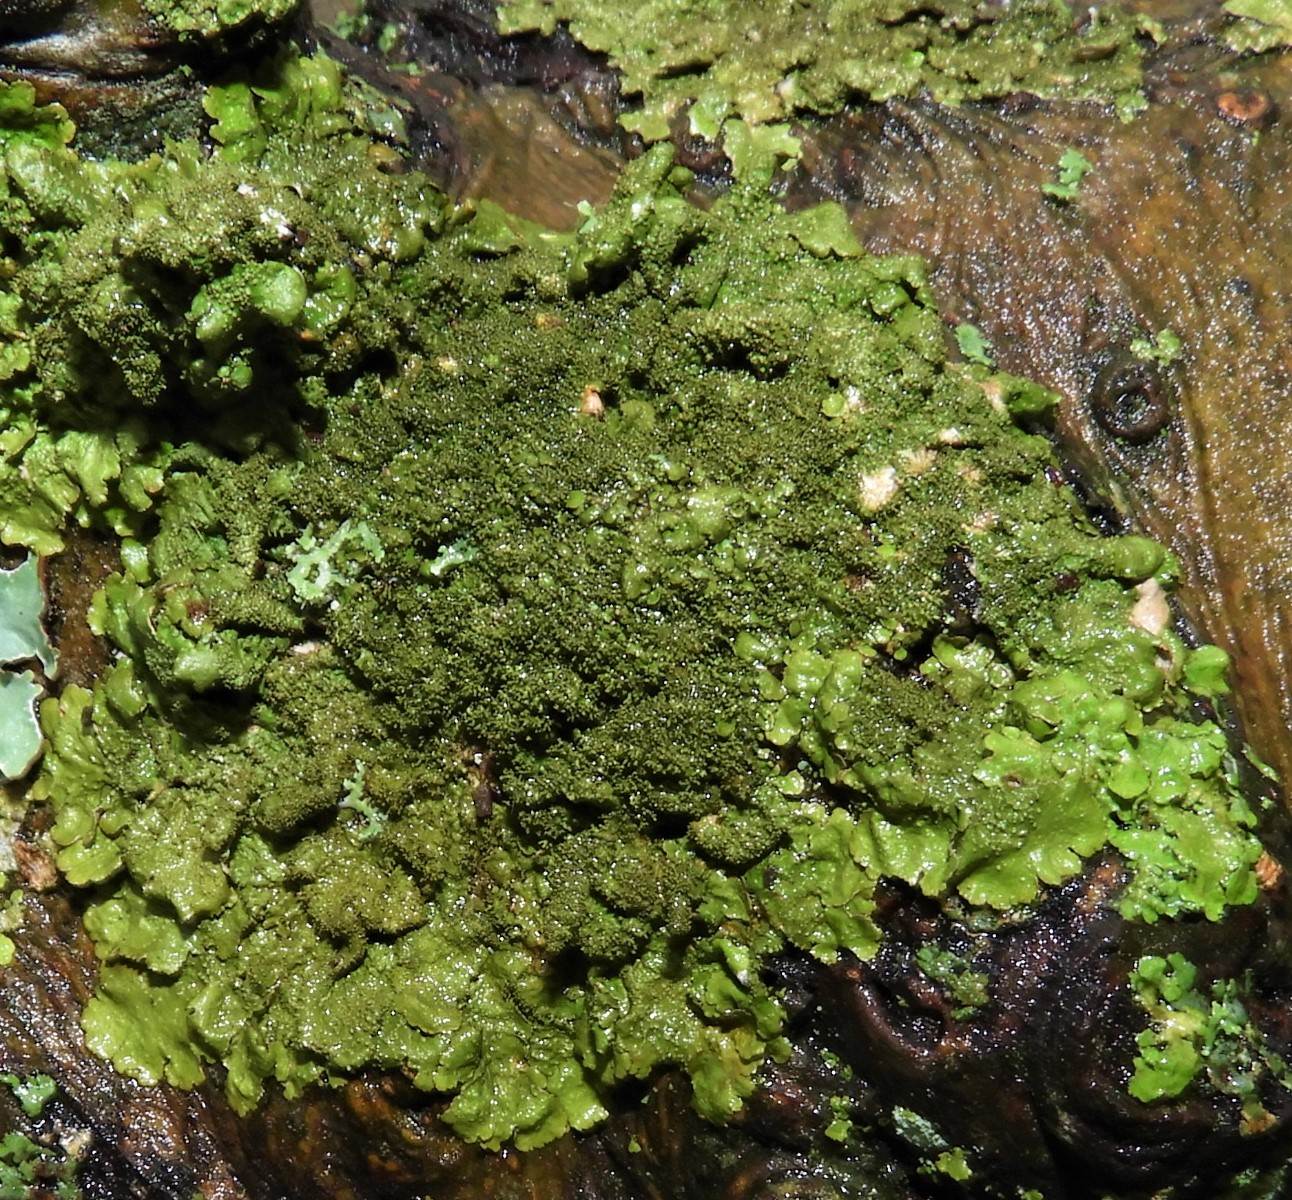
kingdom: Fungi
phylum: Ascomycota
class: Lecanoromycetes
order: Lecanorales
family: Parmeliaceae
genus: Melanohalea
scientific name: Melanohalea exasperatula
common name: kølle-skållav
